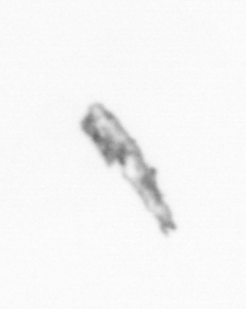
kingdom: Chromista
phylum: Ochrophyta
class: Bacillariophyceae
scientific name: Bacillariophyceae
